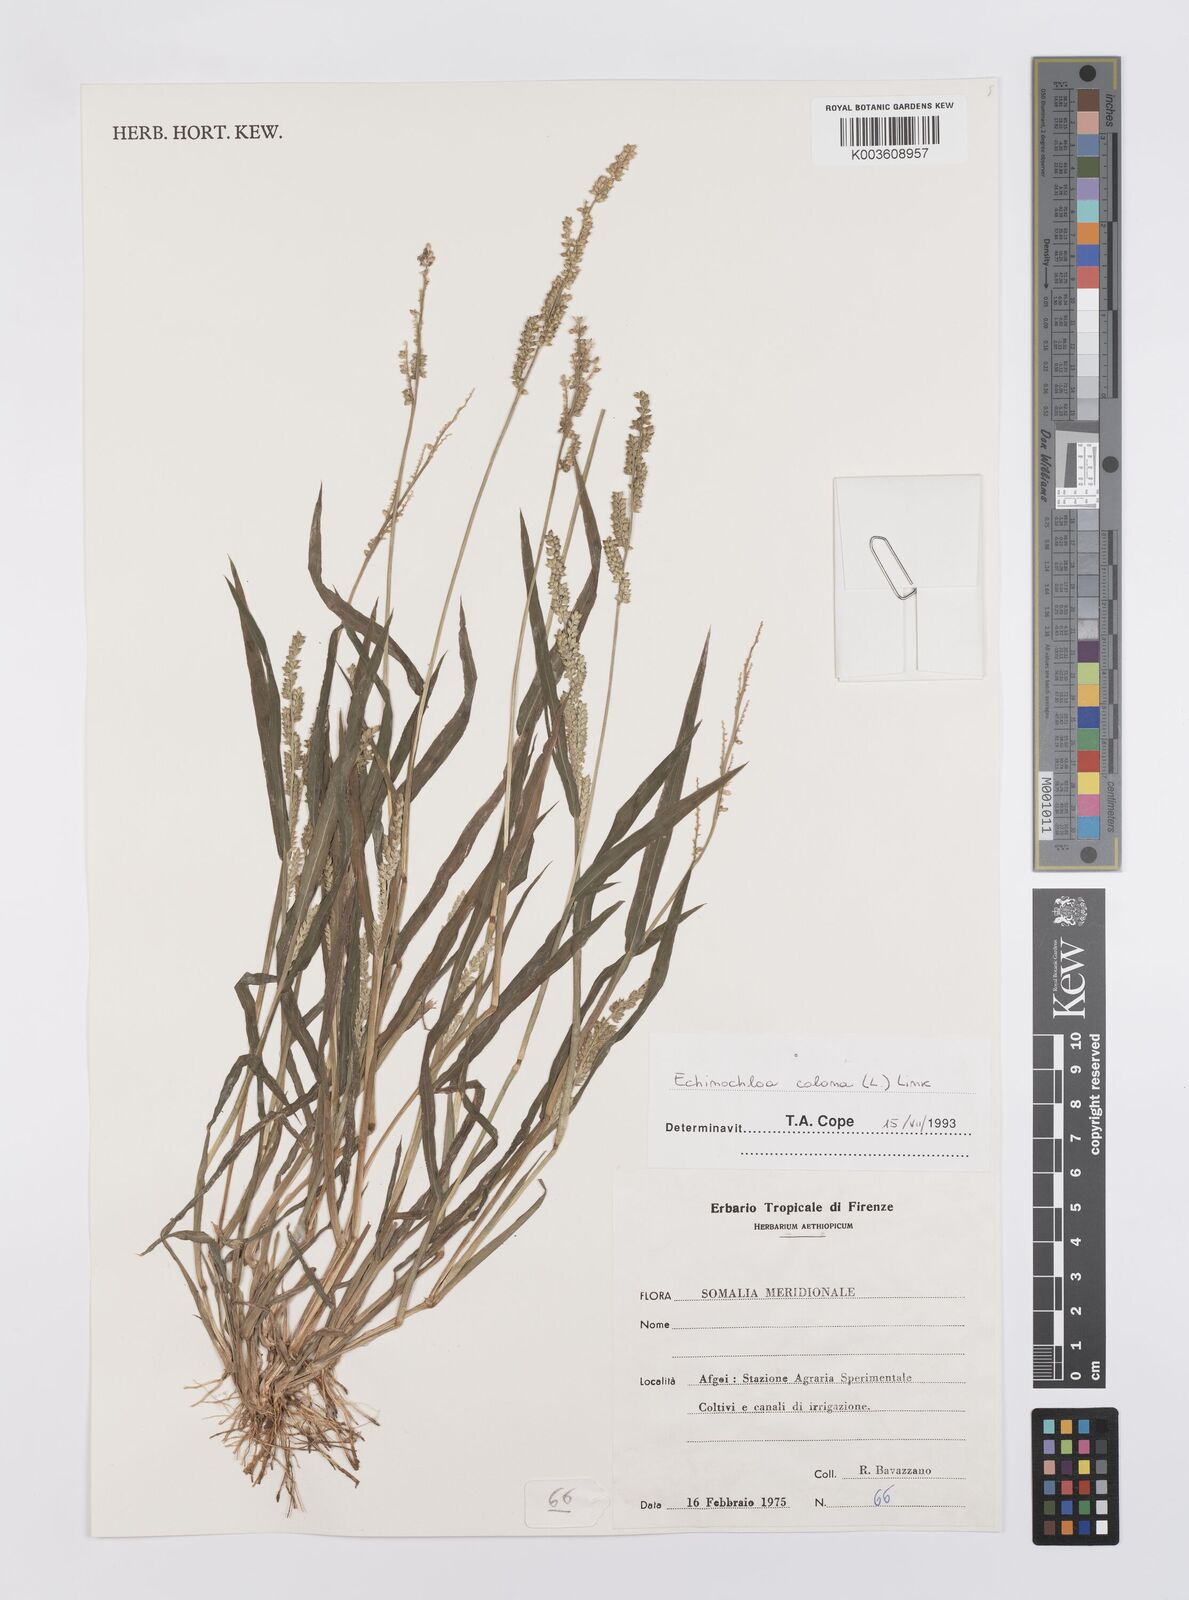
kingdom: Plantae
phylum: Tracheophyta
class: Liliopsida
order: Poales
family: Poaceae
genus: Echinochloa
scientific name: Echinochloa colonum
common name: Jungle rice
